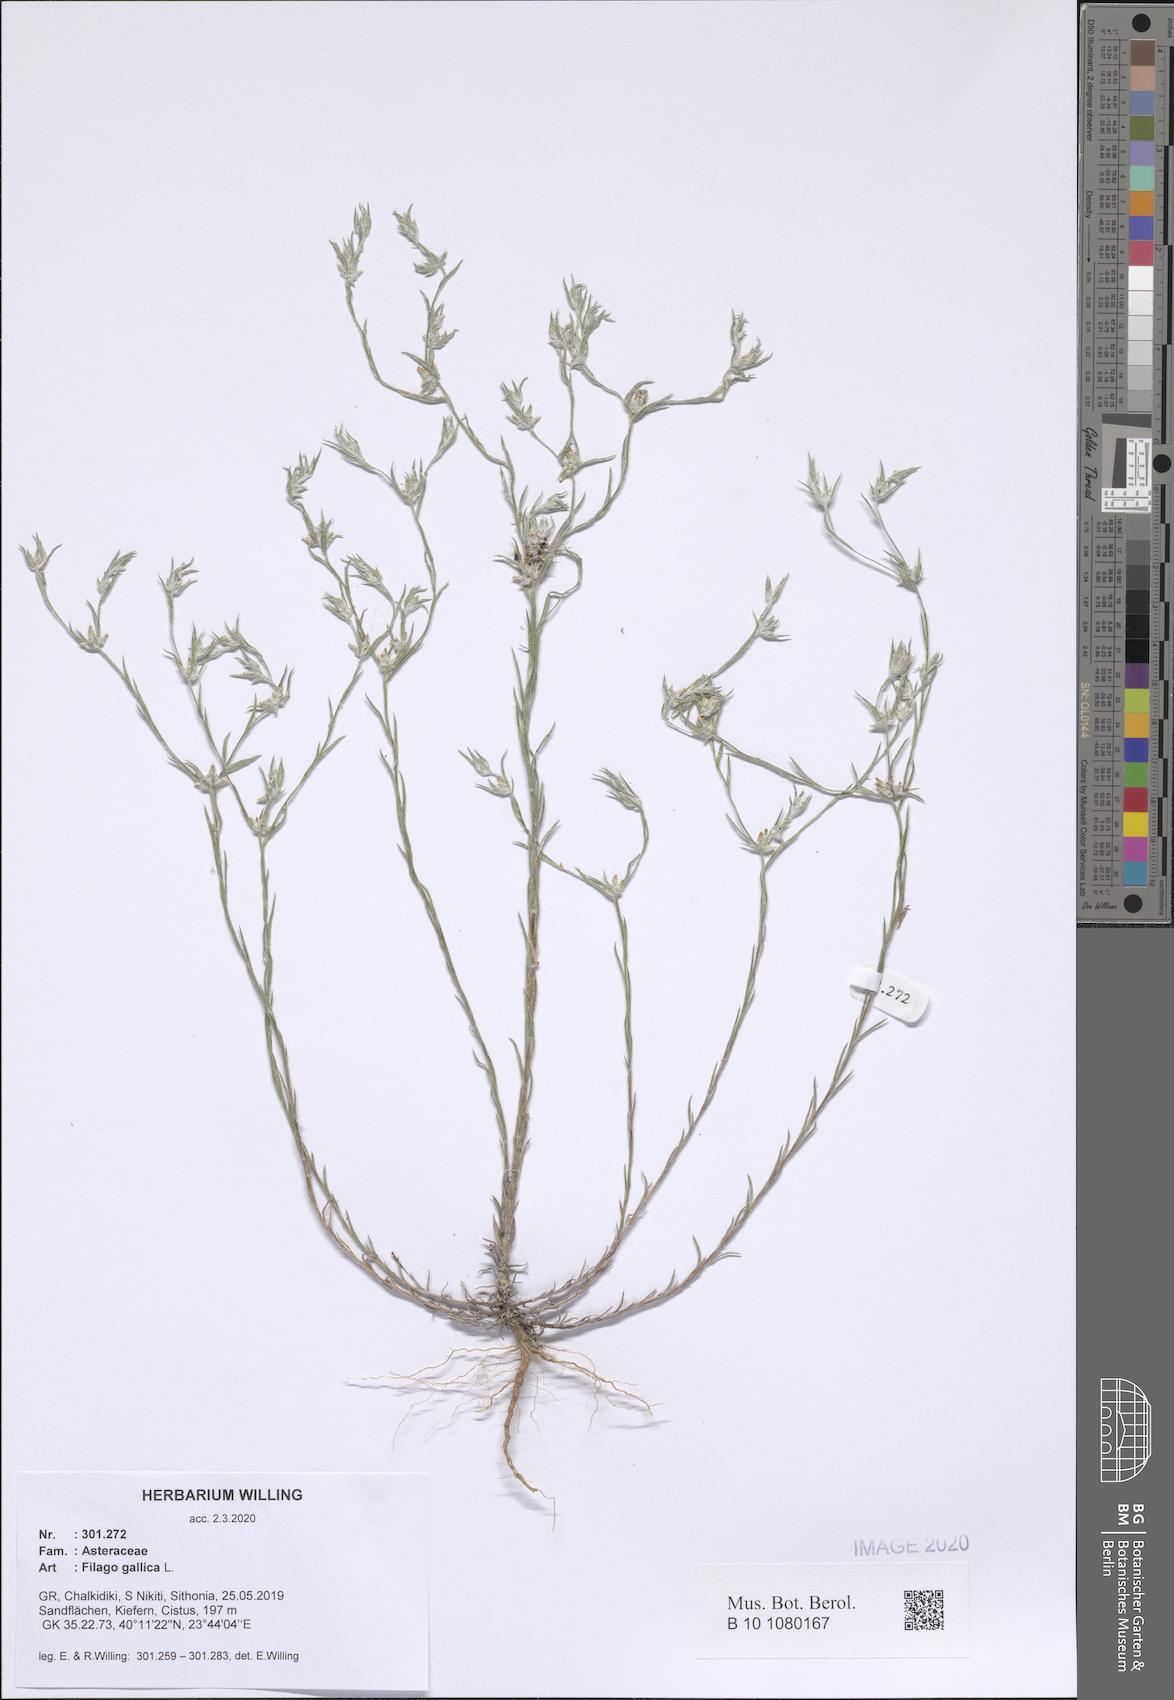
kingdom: Plantae
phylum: Tracheophyta
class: Magnoliopsida
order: Asterales
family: Asteraceae
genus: Logfia
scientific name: Logfia gallica
